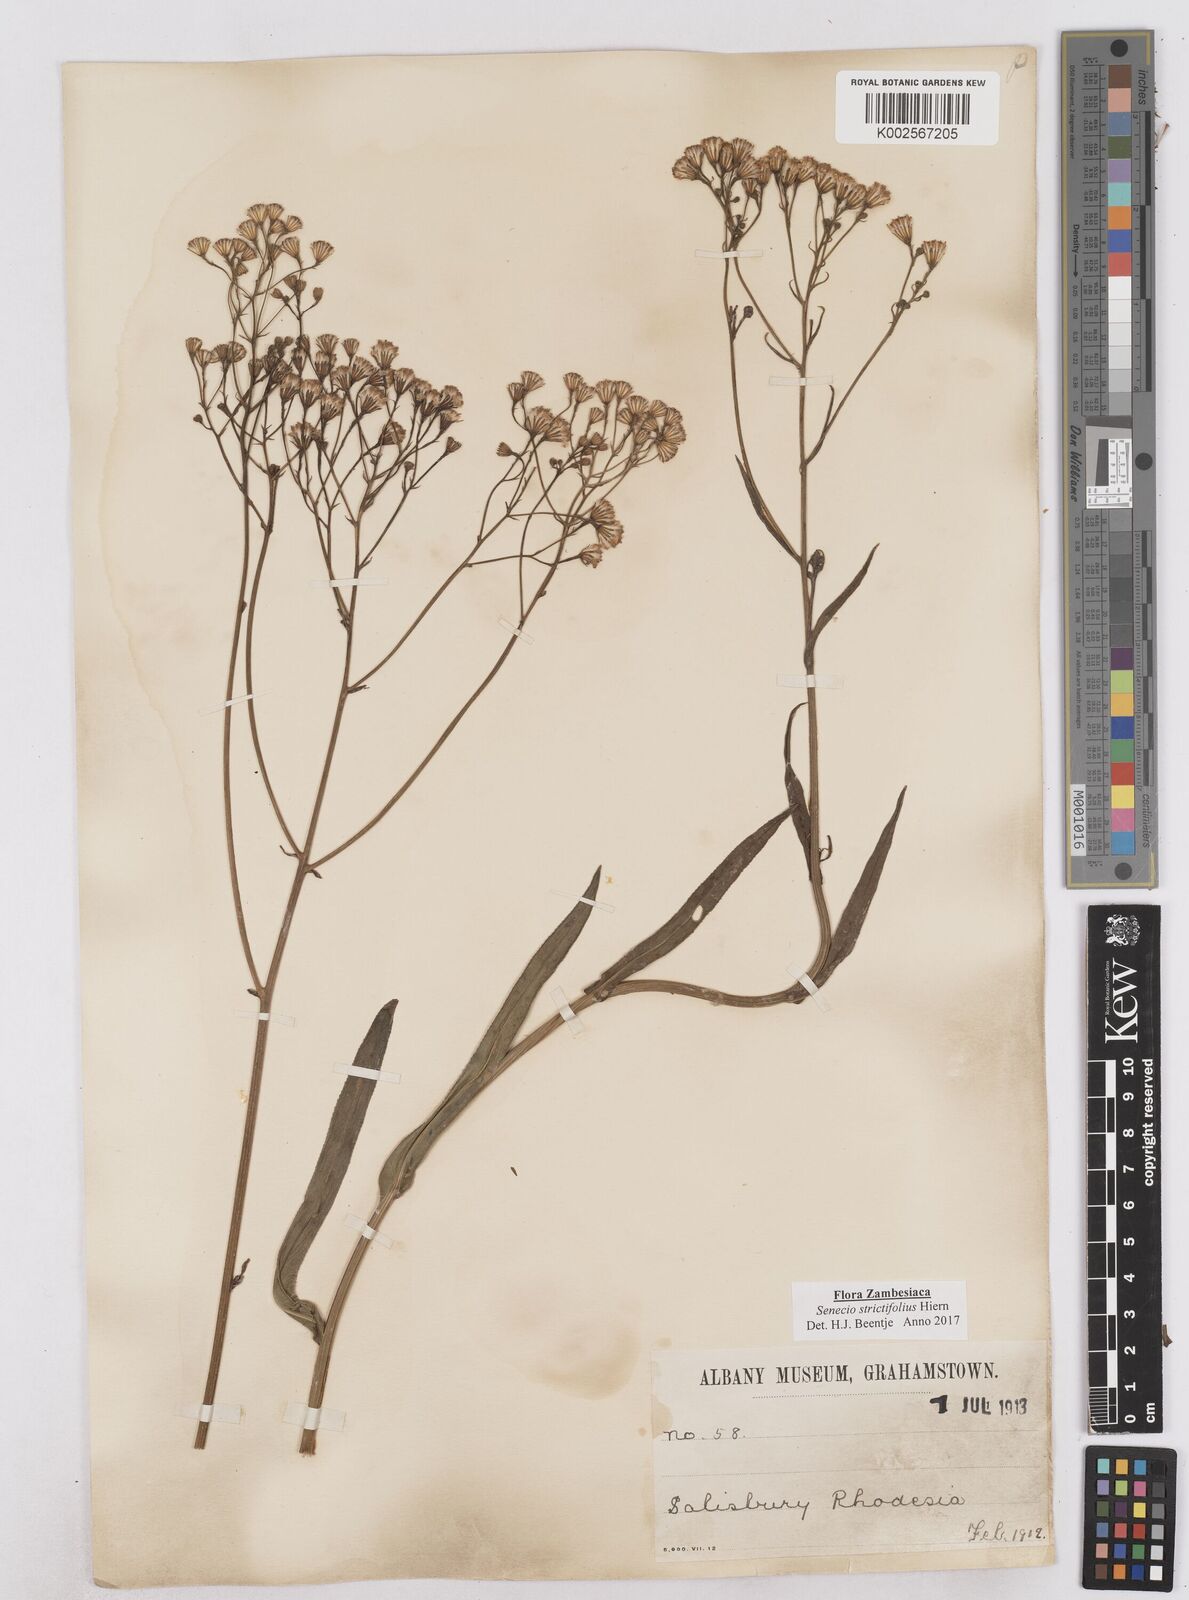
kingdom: Plantae
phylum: Tracheophyta
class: Magnoliopsida
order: Asterales
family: Asteraceae
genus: Senecio
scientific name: Senecio strictifolius
